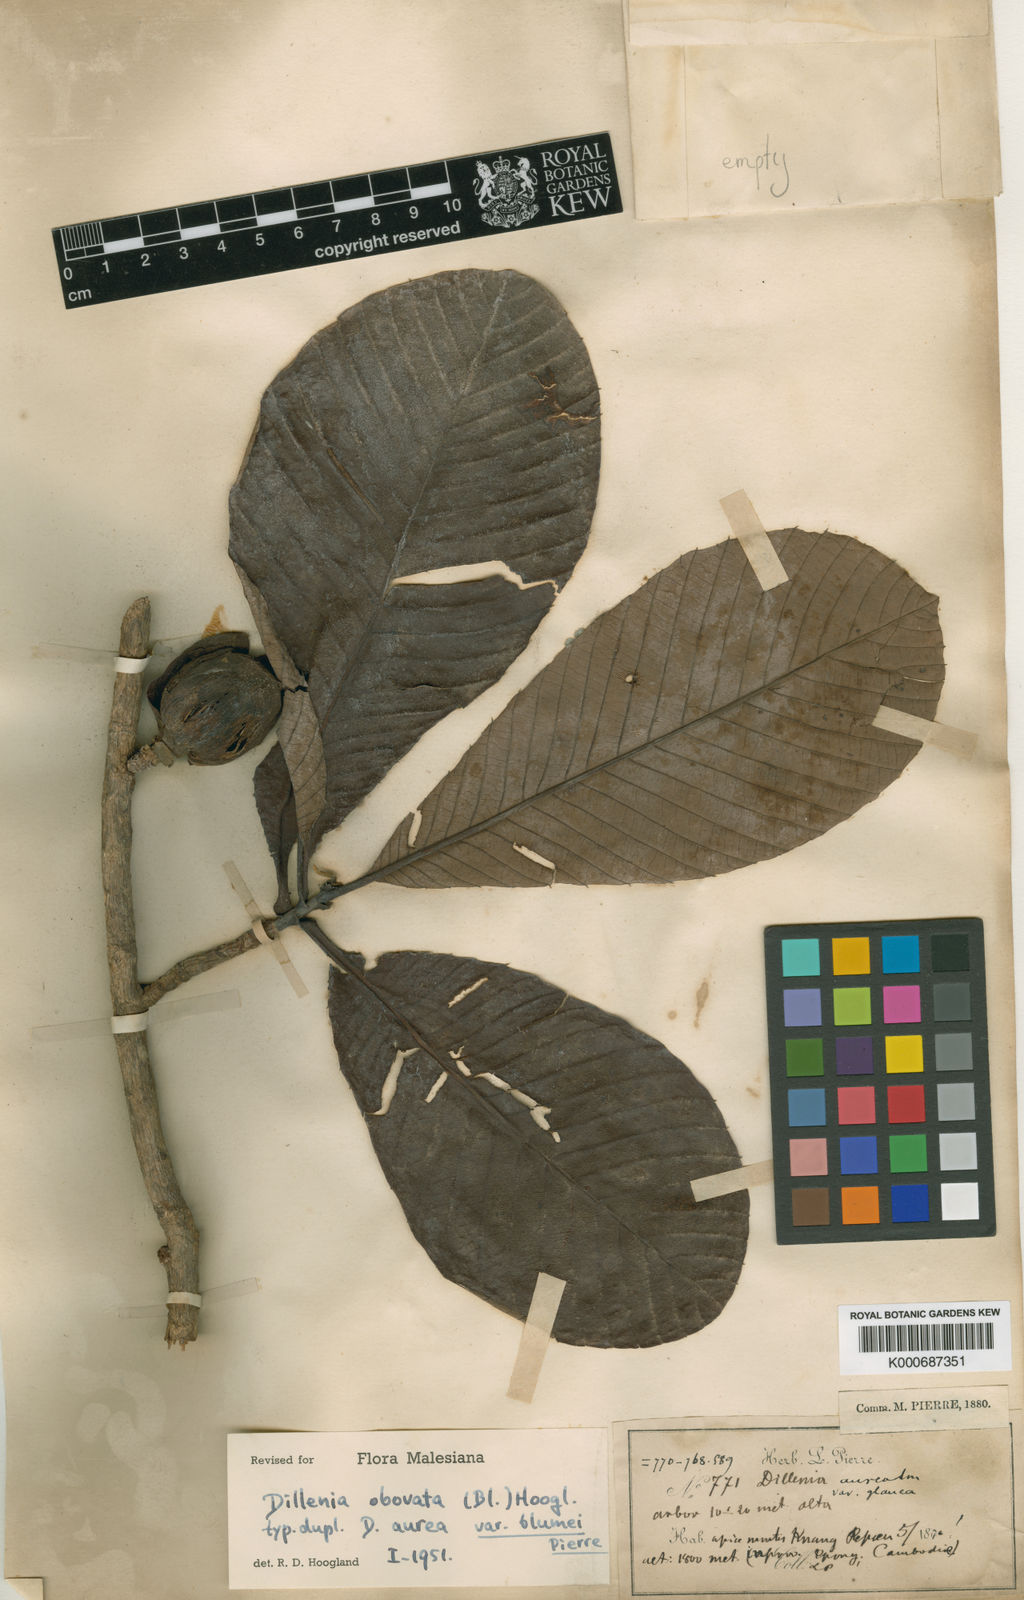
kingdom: Plantae
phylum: Tracheophyta
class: Magnoliopsida
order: Dilleniales
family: Dilleniaceae
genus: Dillenia
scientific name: Dillenia obovata
